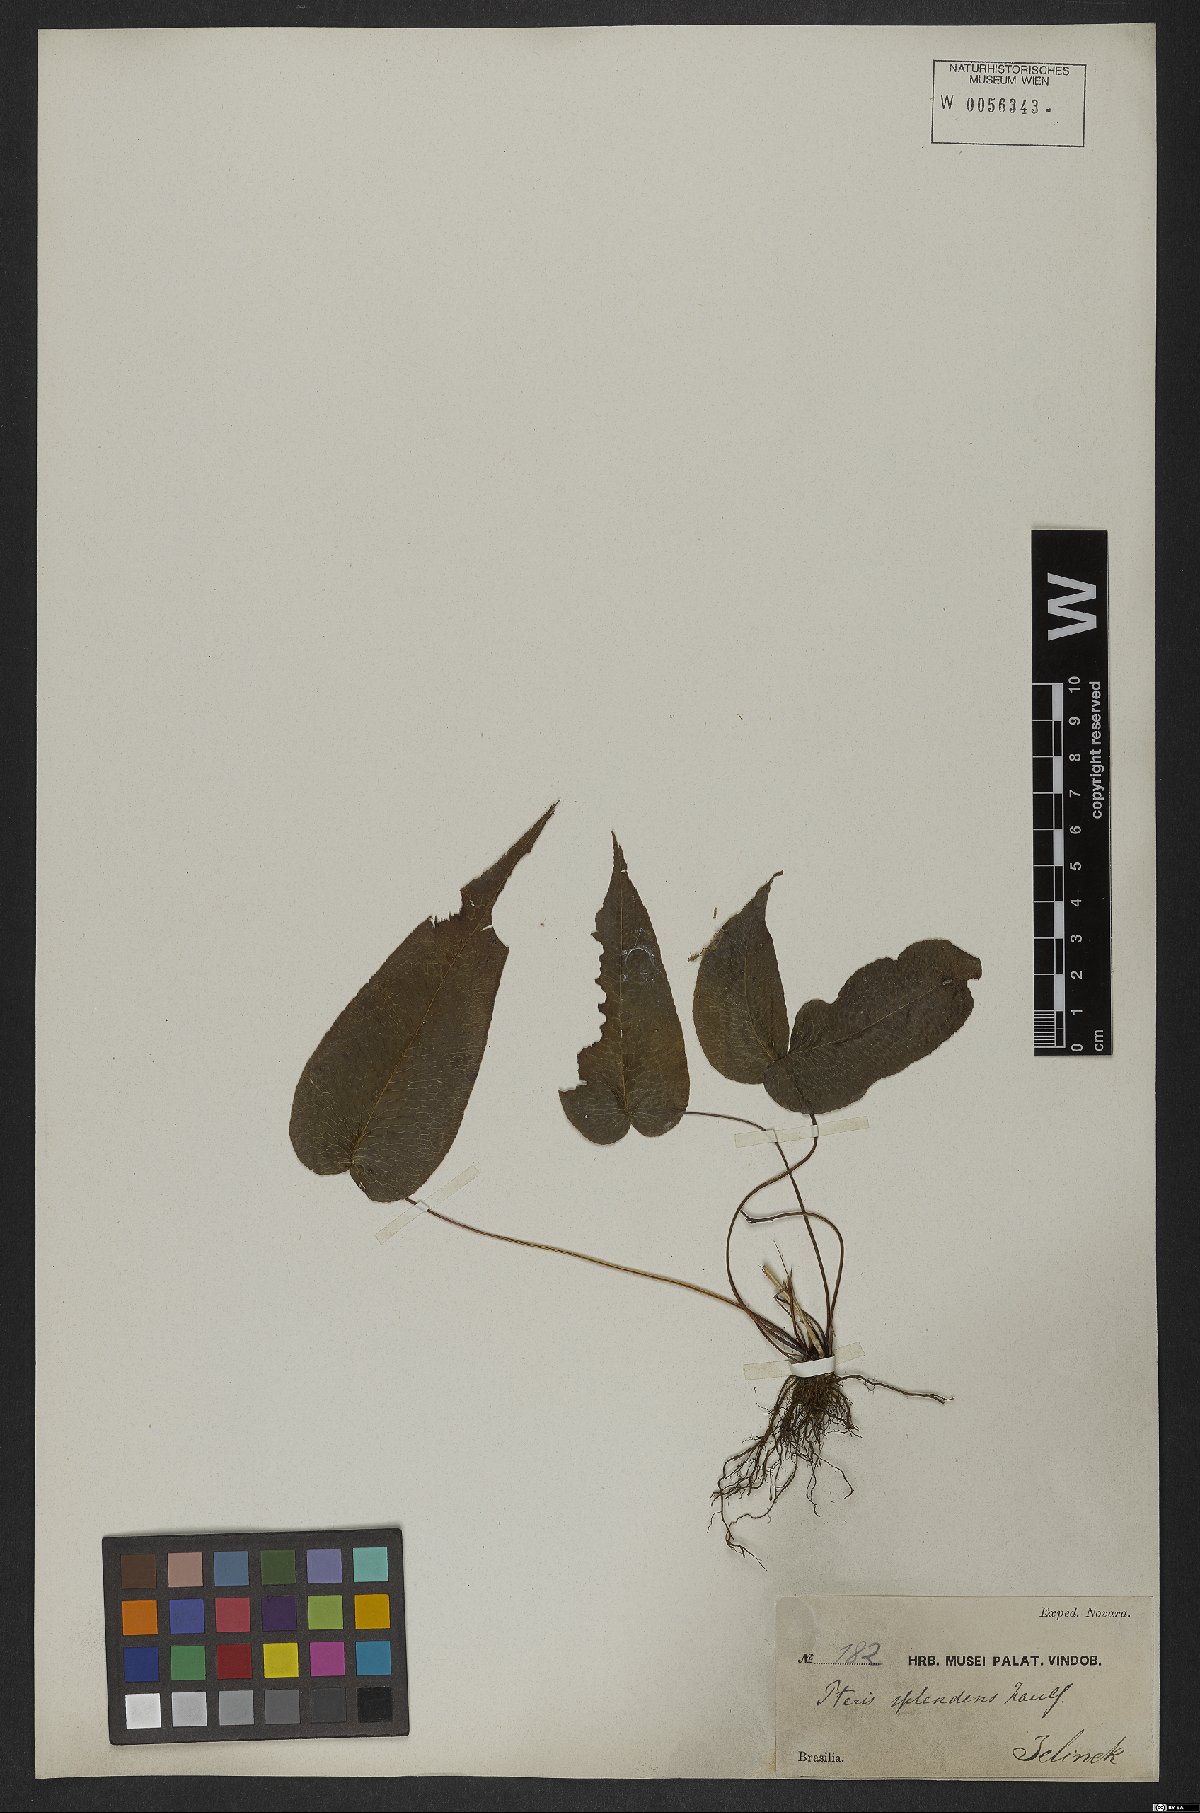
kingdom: Plantae
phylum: Tracheophyta
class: Polypodiopsida
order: Polypodiales
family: Pteridaceae
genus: Pteris
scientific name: Pteris splendens
